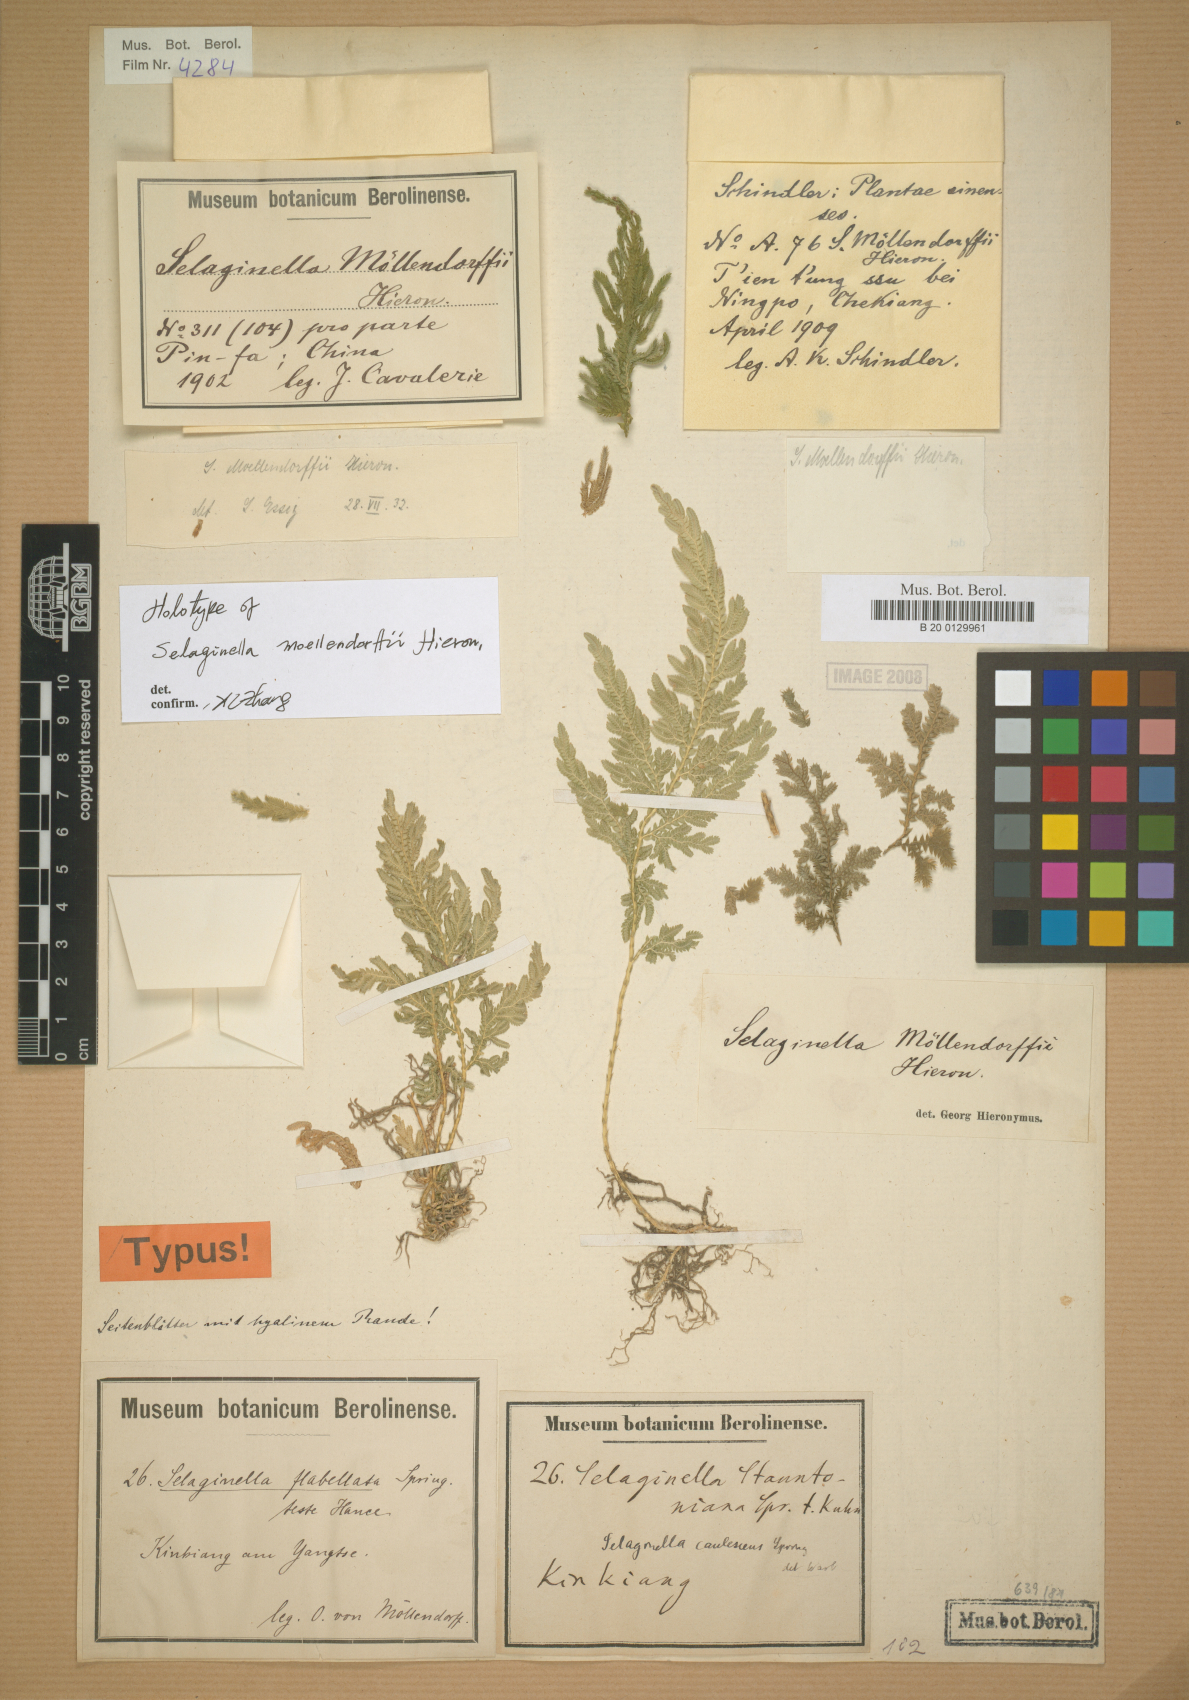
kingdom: Plantae
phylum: Tracheophyta
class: Lycopodiopsida
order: Selaginellales
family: Selaginellaceae
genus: Selaginella
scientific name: Selaginella moellendorffii
